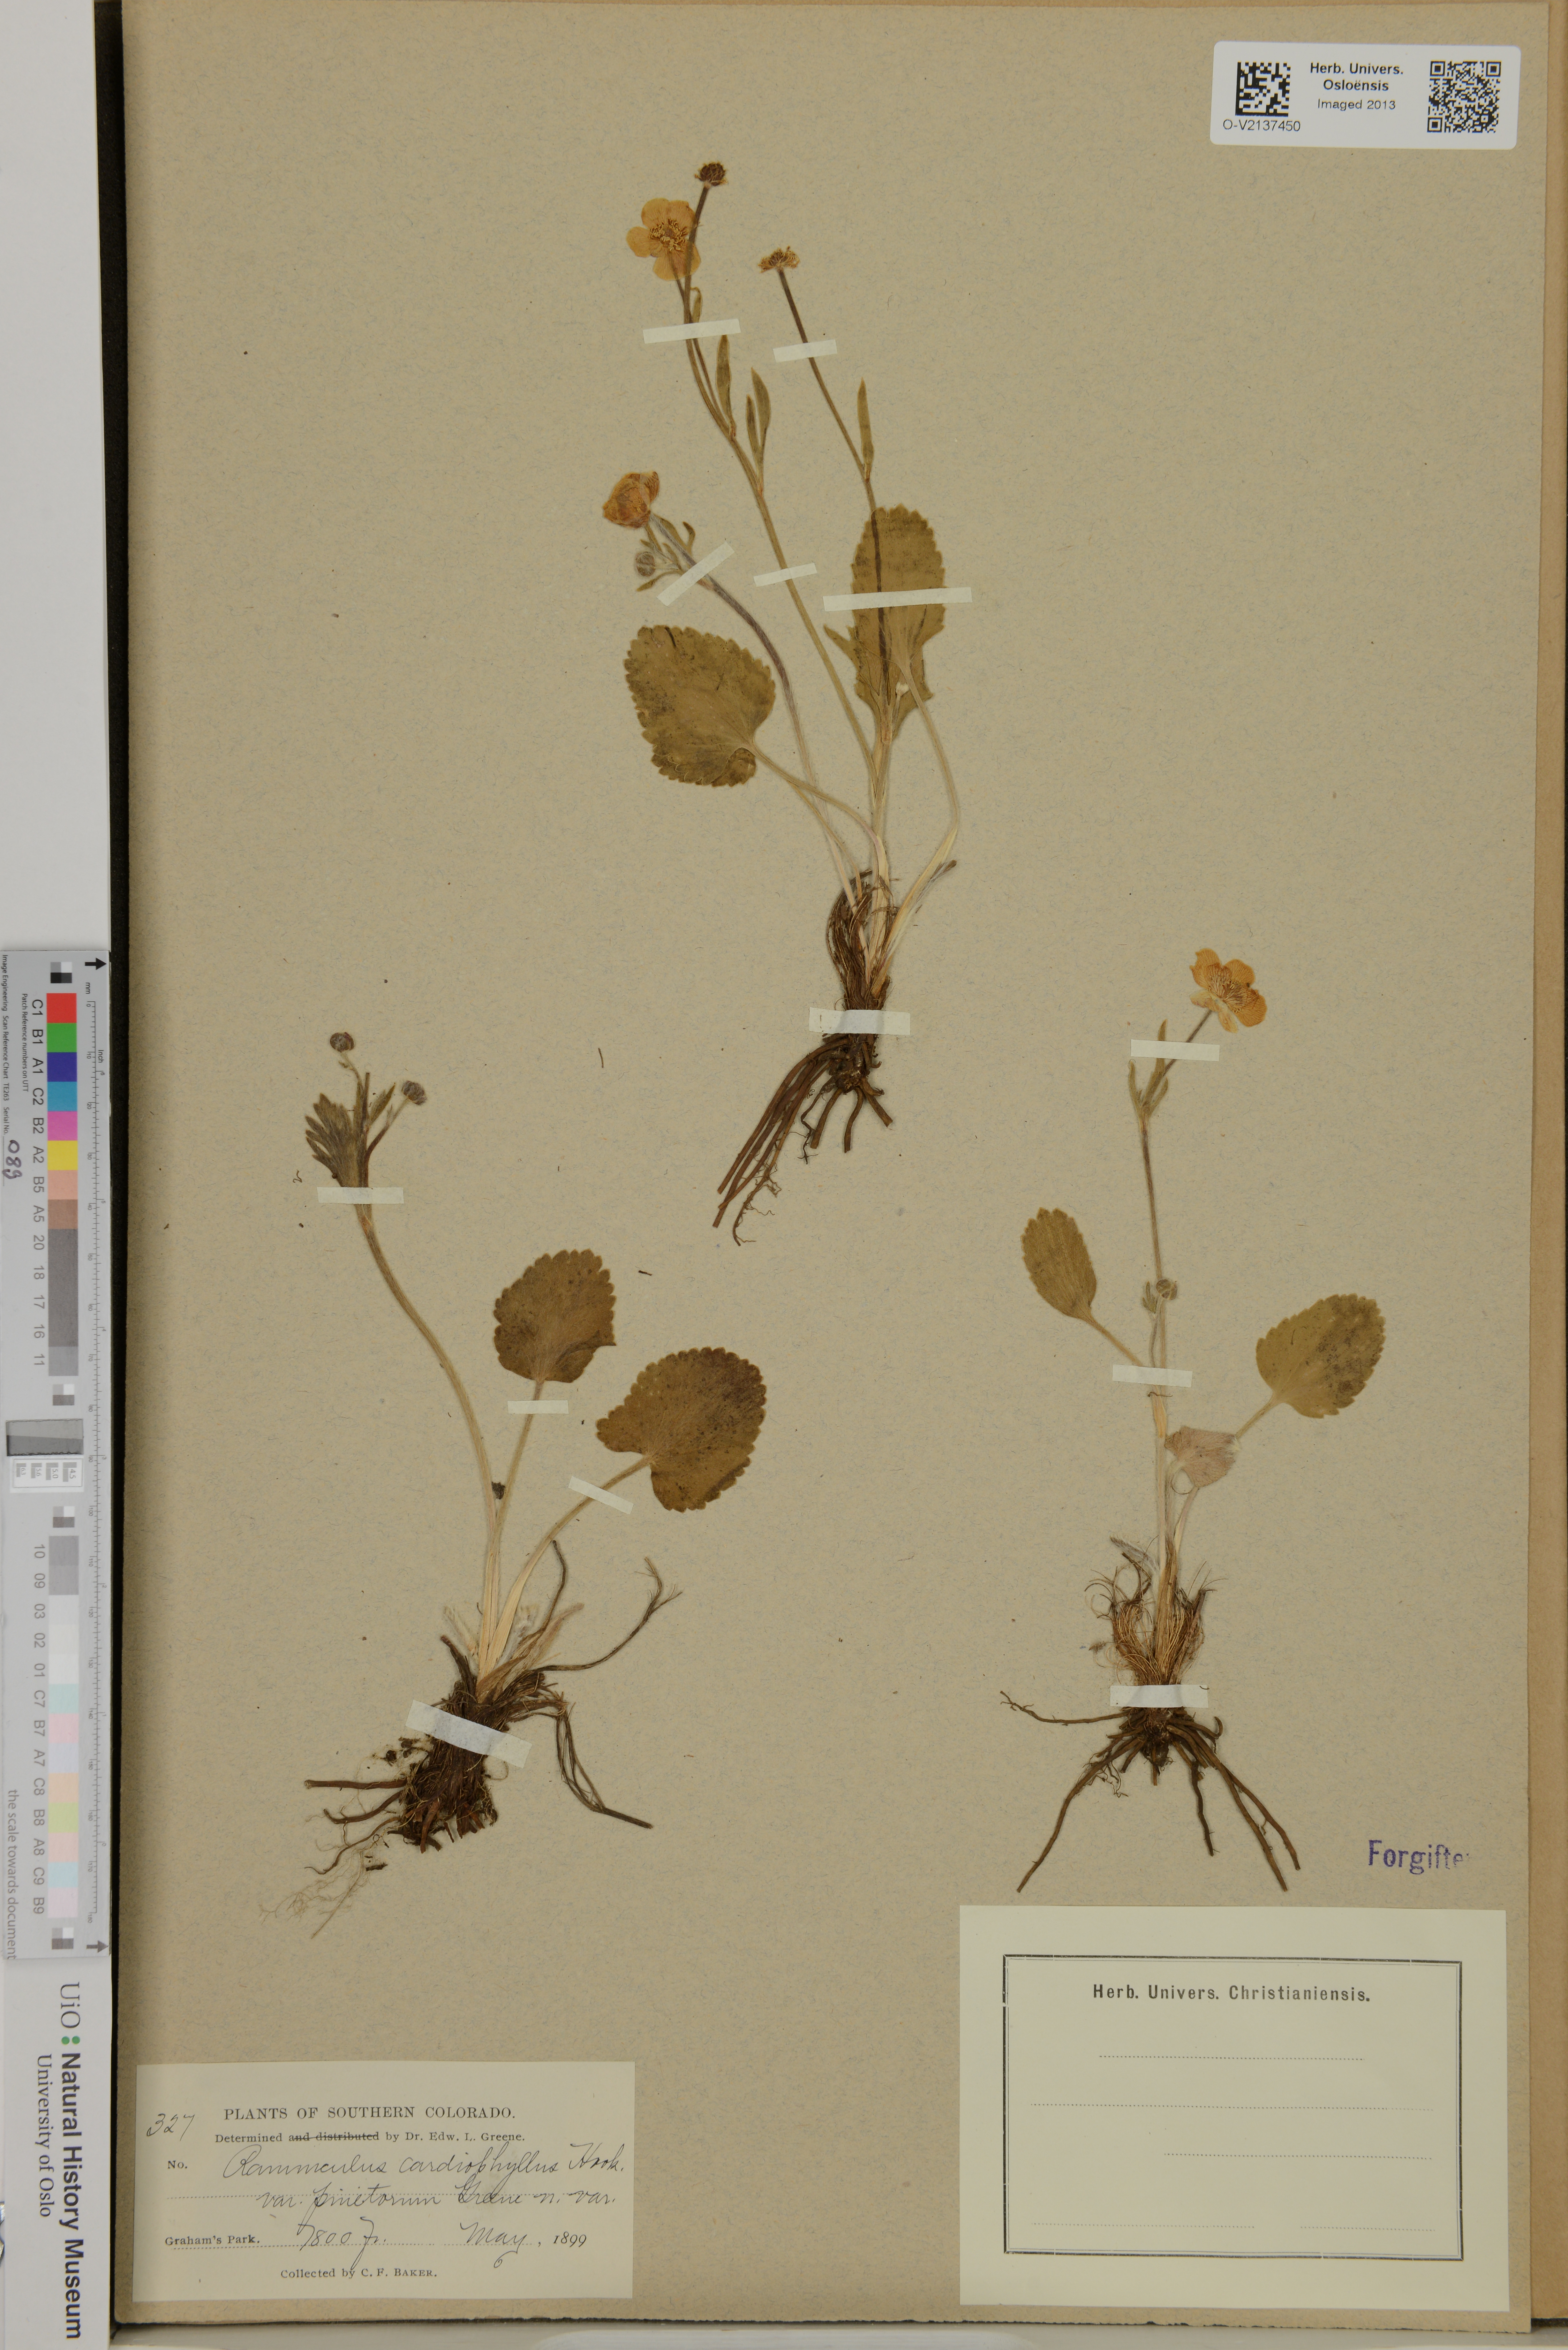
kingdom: Plantae
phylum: Tracheophyta
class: Magnoliopsida
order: Ranunculales
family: Ranunculaceae
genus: Ranunculus
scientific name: Ranunculus cardiophyllus
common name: Heart-leaved buttercup
